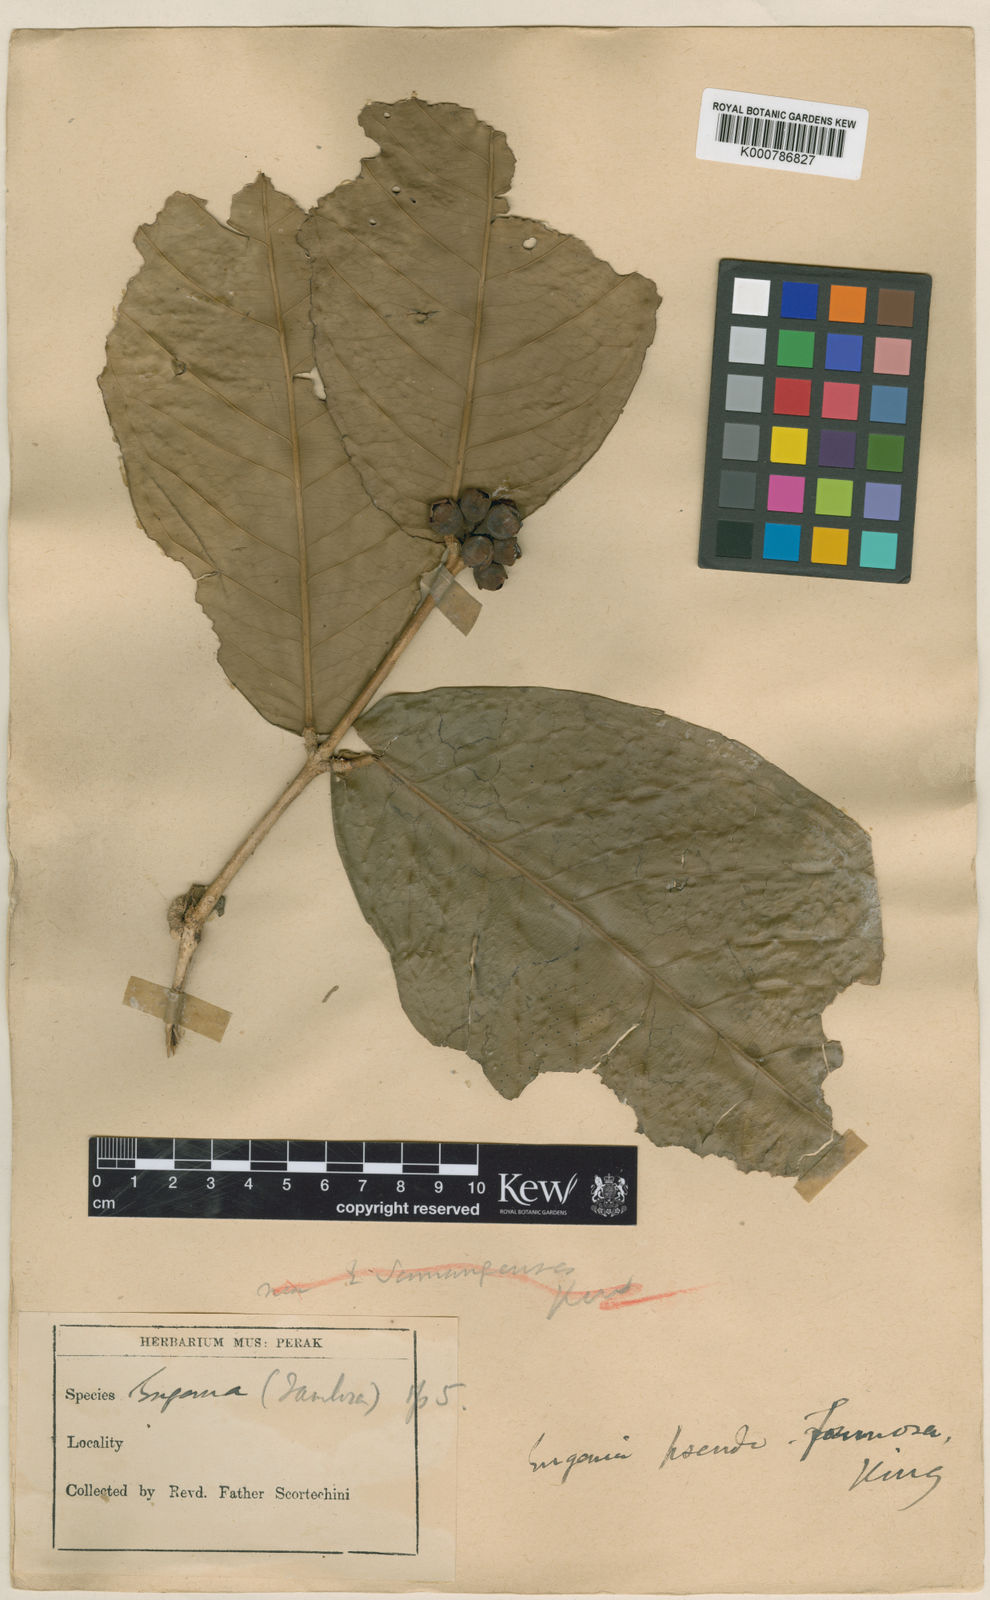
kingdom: Plantae
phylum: Tracheophyta
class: Magnoliopsida
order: Myrtales
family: Myrtaceae
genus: Syzygium
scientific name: Syzygium formosum
